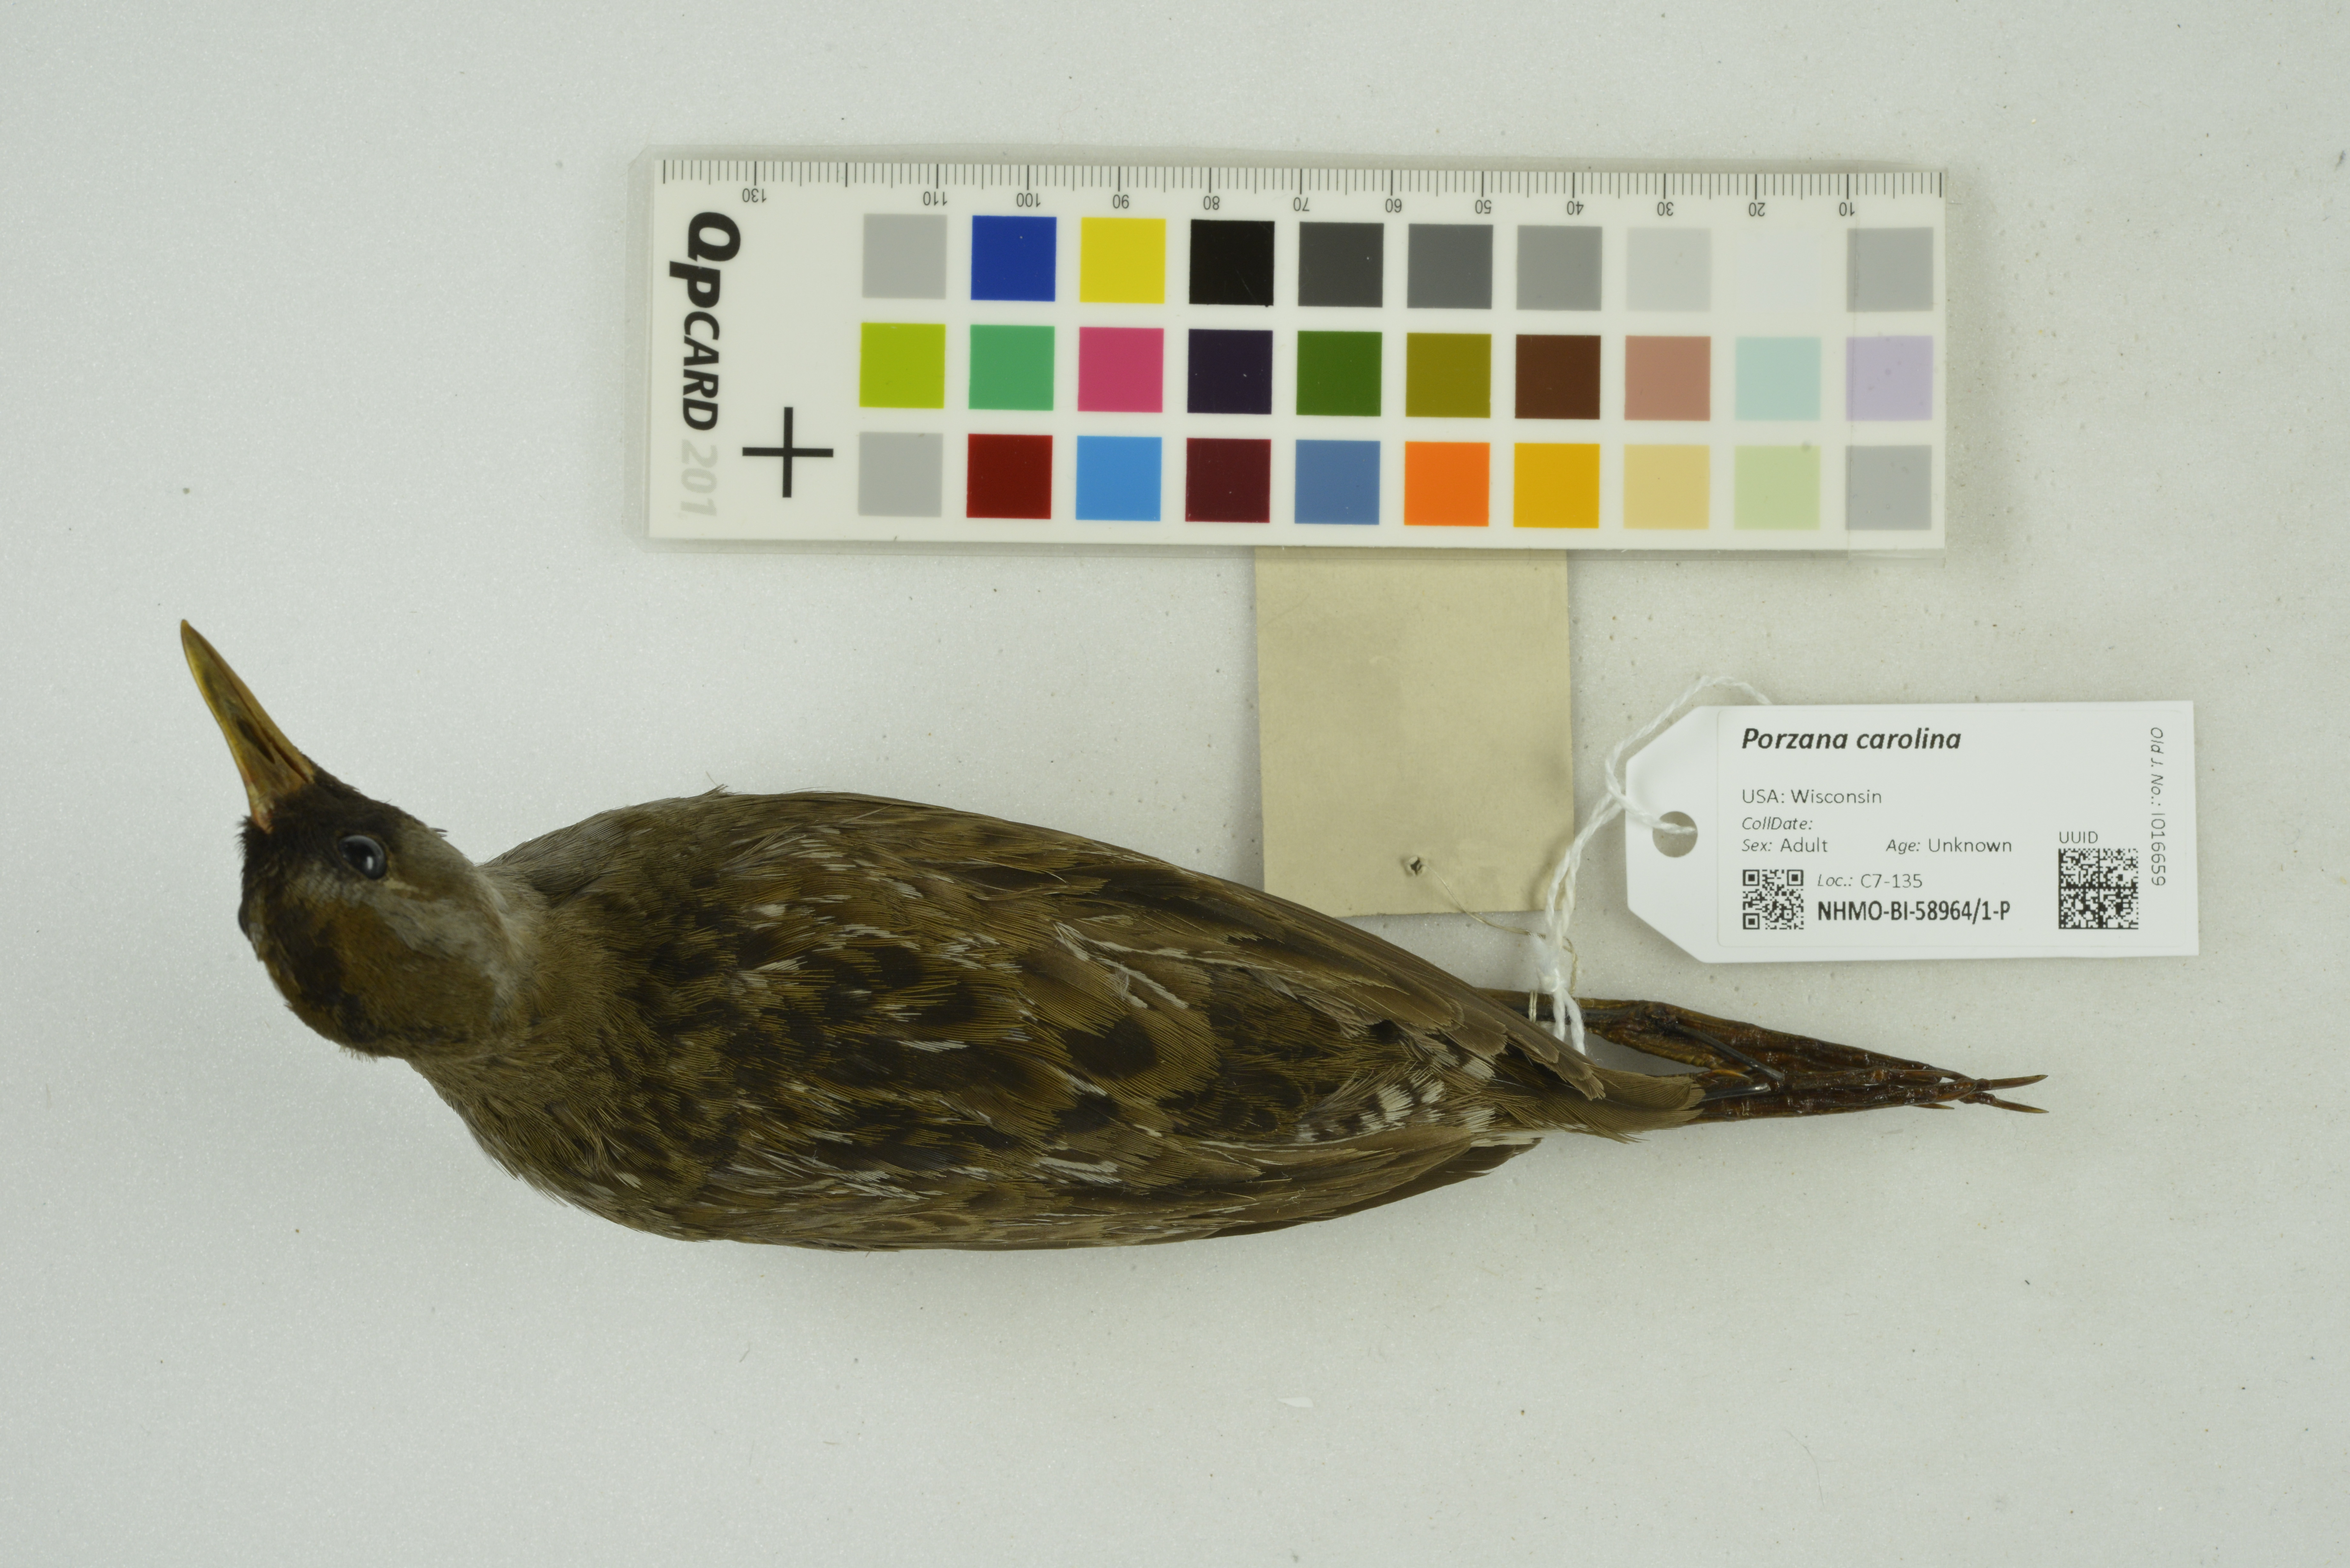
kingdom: Animalia
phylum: Chordata
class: Aves
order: Gruiformes
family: Rallidae
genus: Porzana
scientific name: Porzana carolina
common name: Sora
